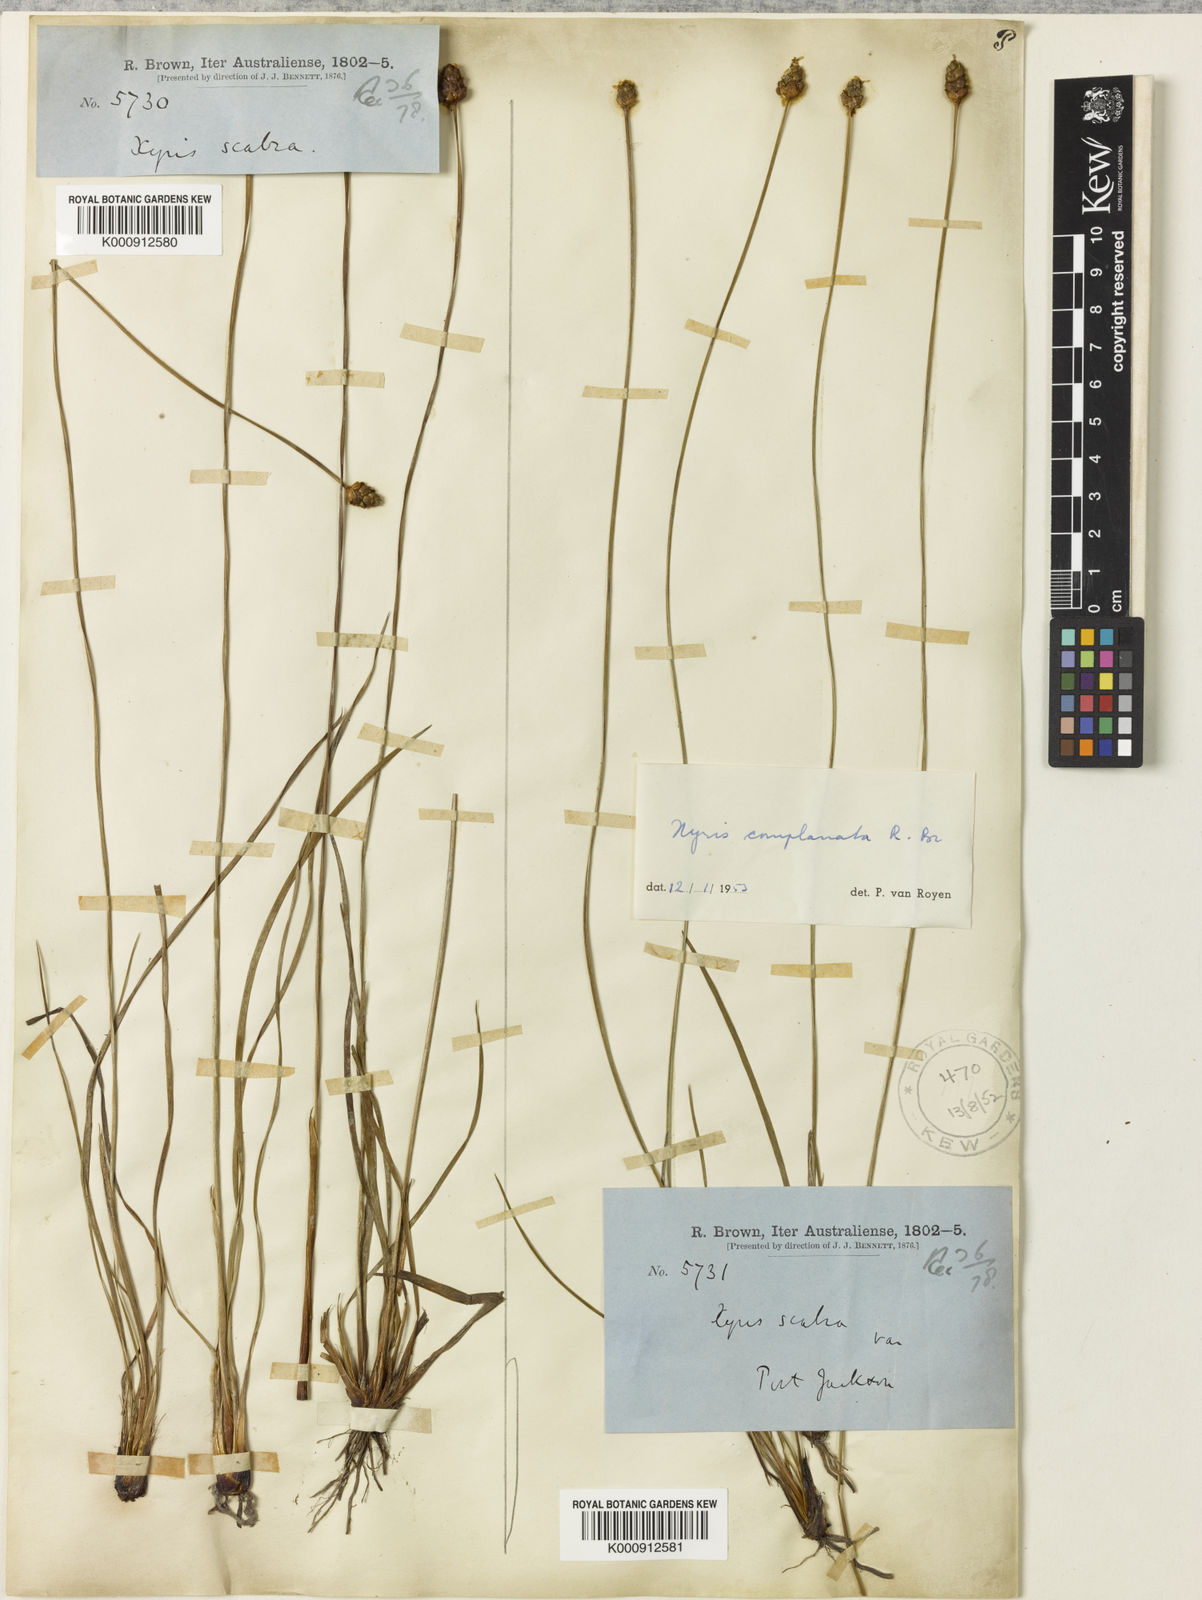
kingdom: Plantae
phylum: Tracheophyta
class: Liliopsida
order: Poales
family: Xyridaceae
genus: Xyris
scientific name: Xyris complanata
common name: Hawai'i yelloweyed grass
